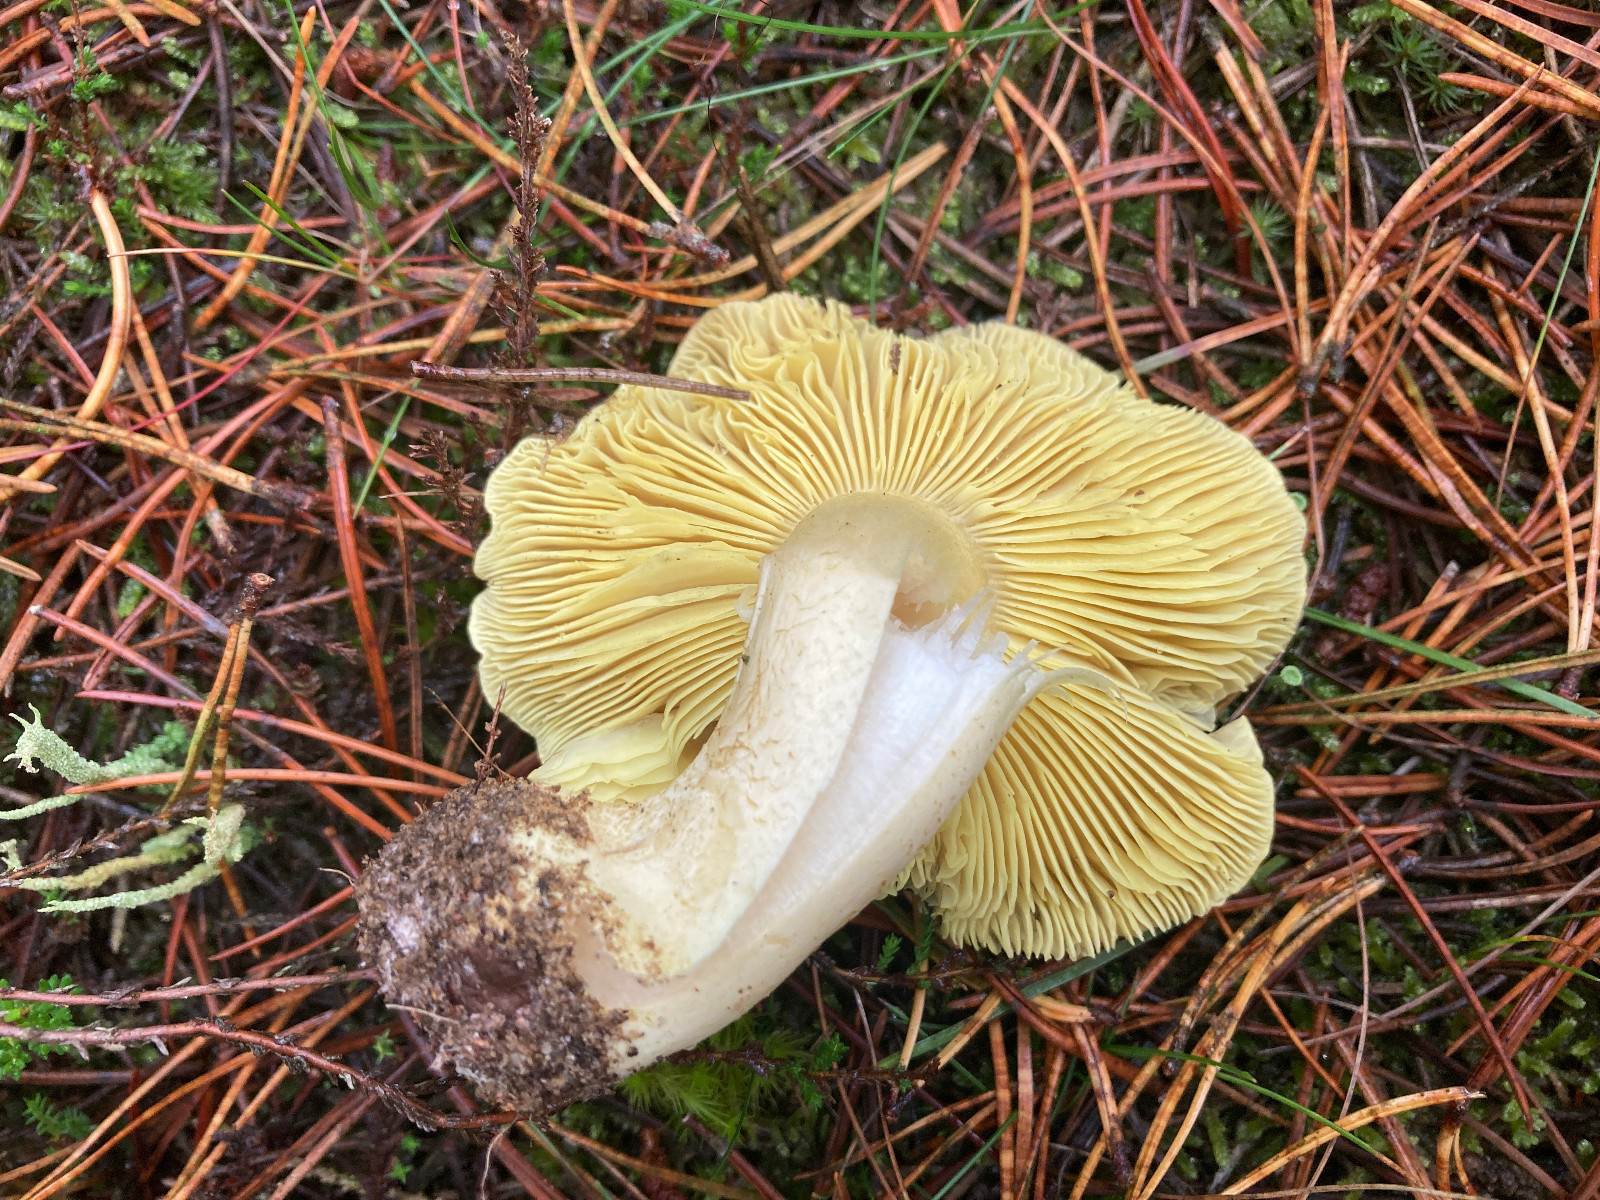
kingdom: Fungi
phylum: Basidiomycota
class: Agaricomycetes
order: Agaricales
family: Tricholomataceae
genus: Tricholoma
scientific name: Tricholoma equestre
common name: ægte ridderhat
